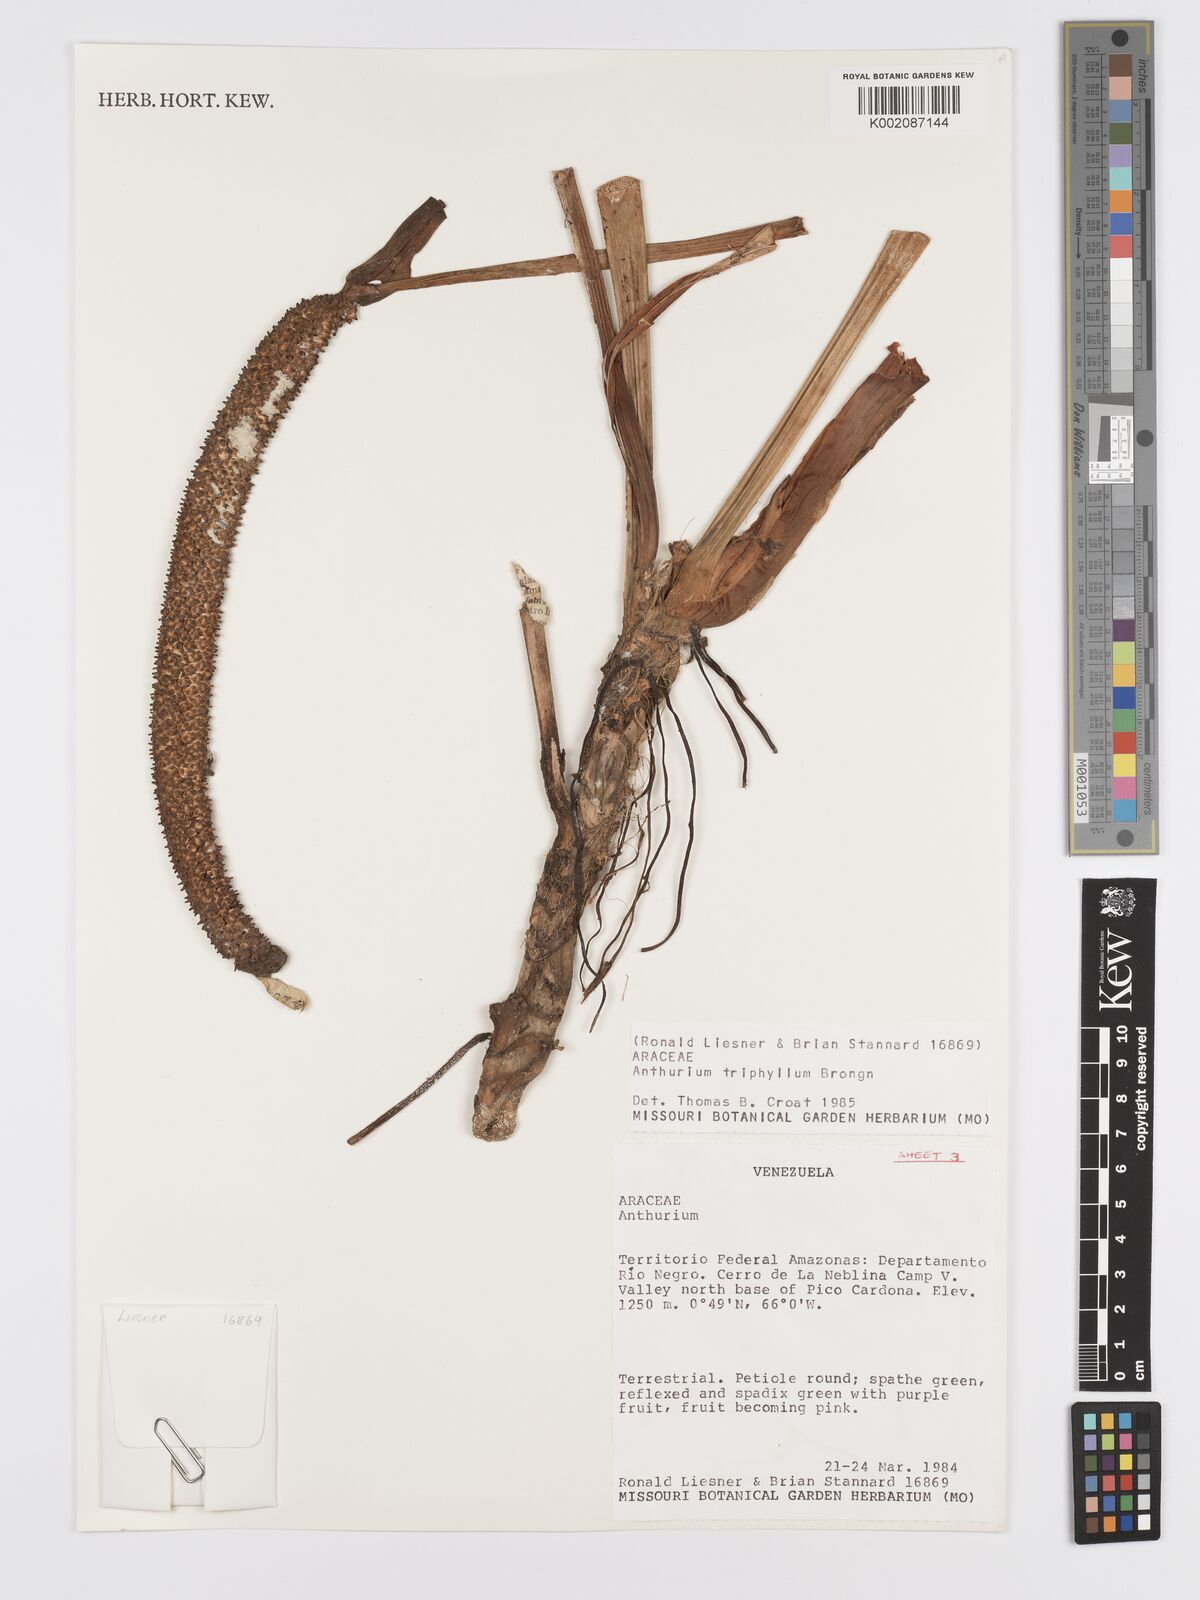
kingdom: Plantae
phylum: Tracheophyta
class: Liliopsida
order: Alismatales
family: Araceae
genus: Anthurium
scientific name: Anthurium triphyllum
